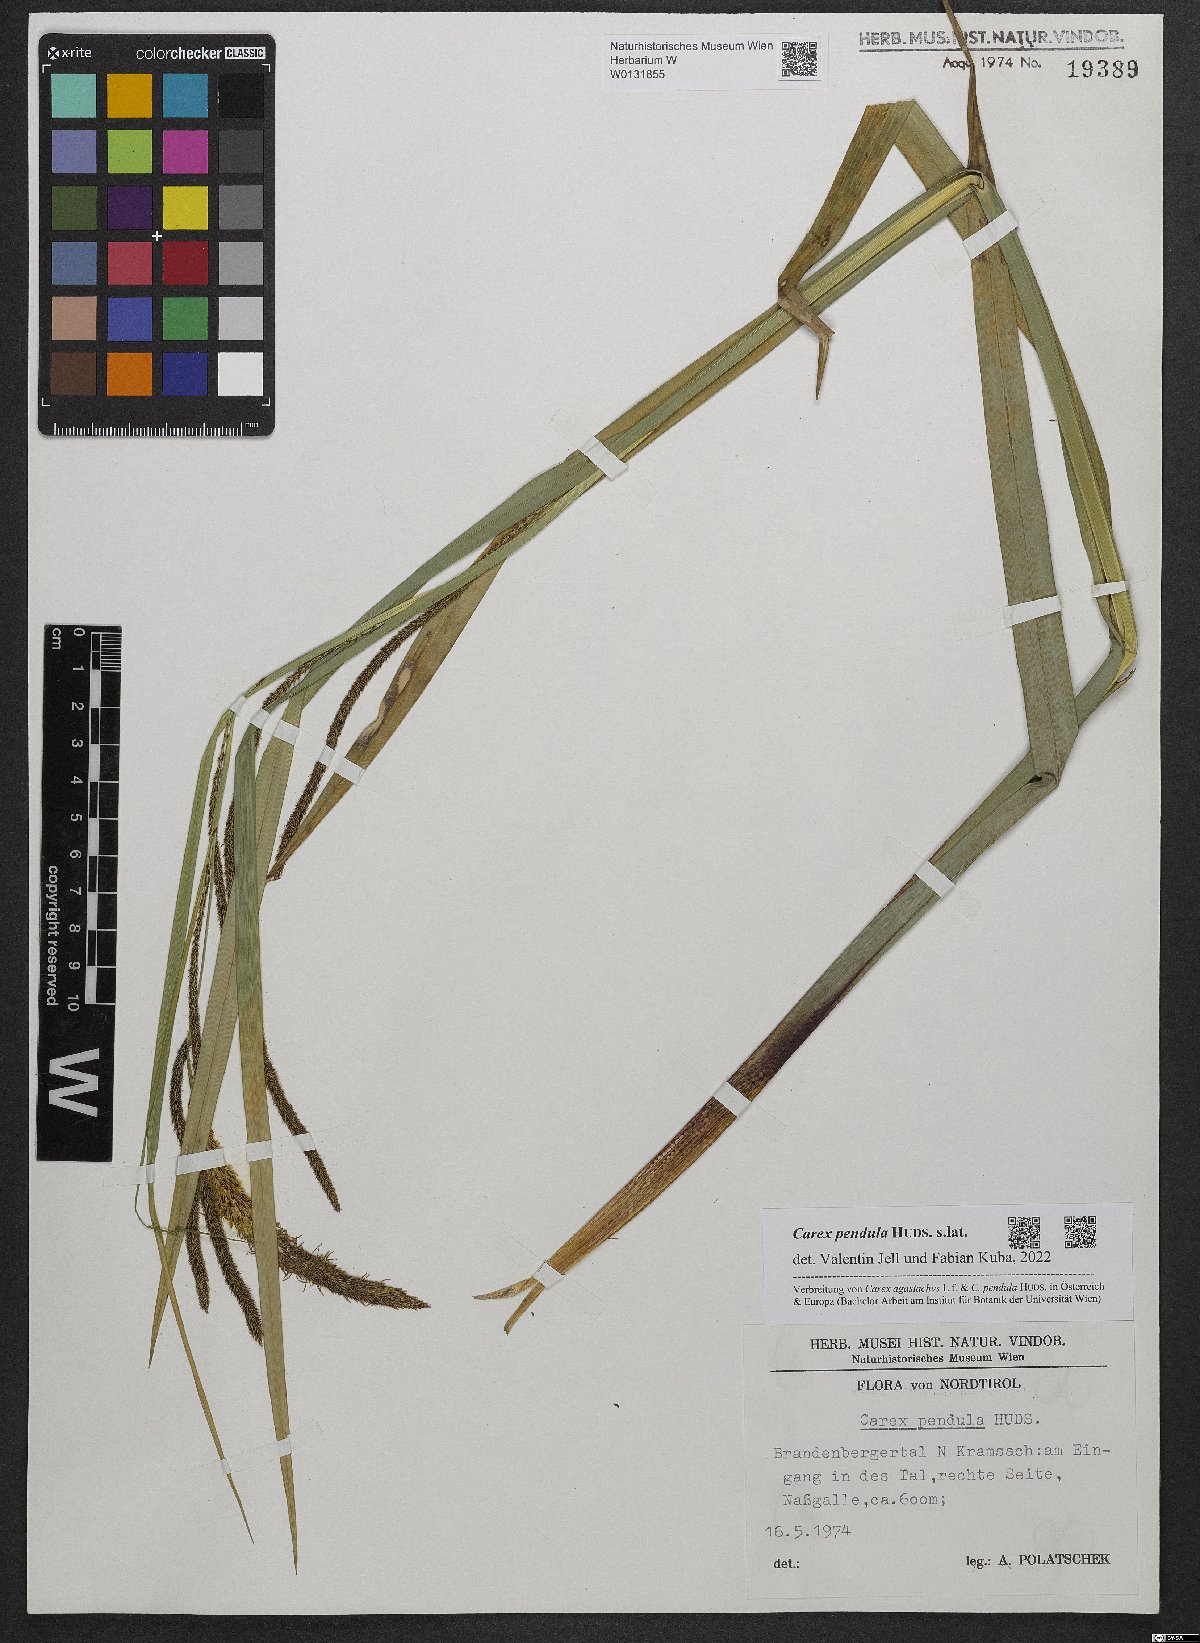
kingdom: Plantae
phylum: Tracheophyta
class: Liliopsida
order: Poales
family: Cyperaceae
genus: Carex
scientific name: Carex pendula
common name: Pendulous sedge
